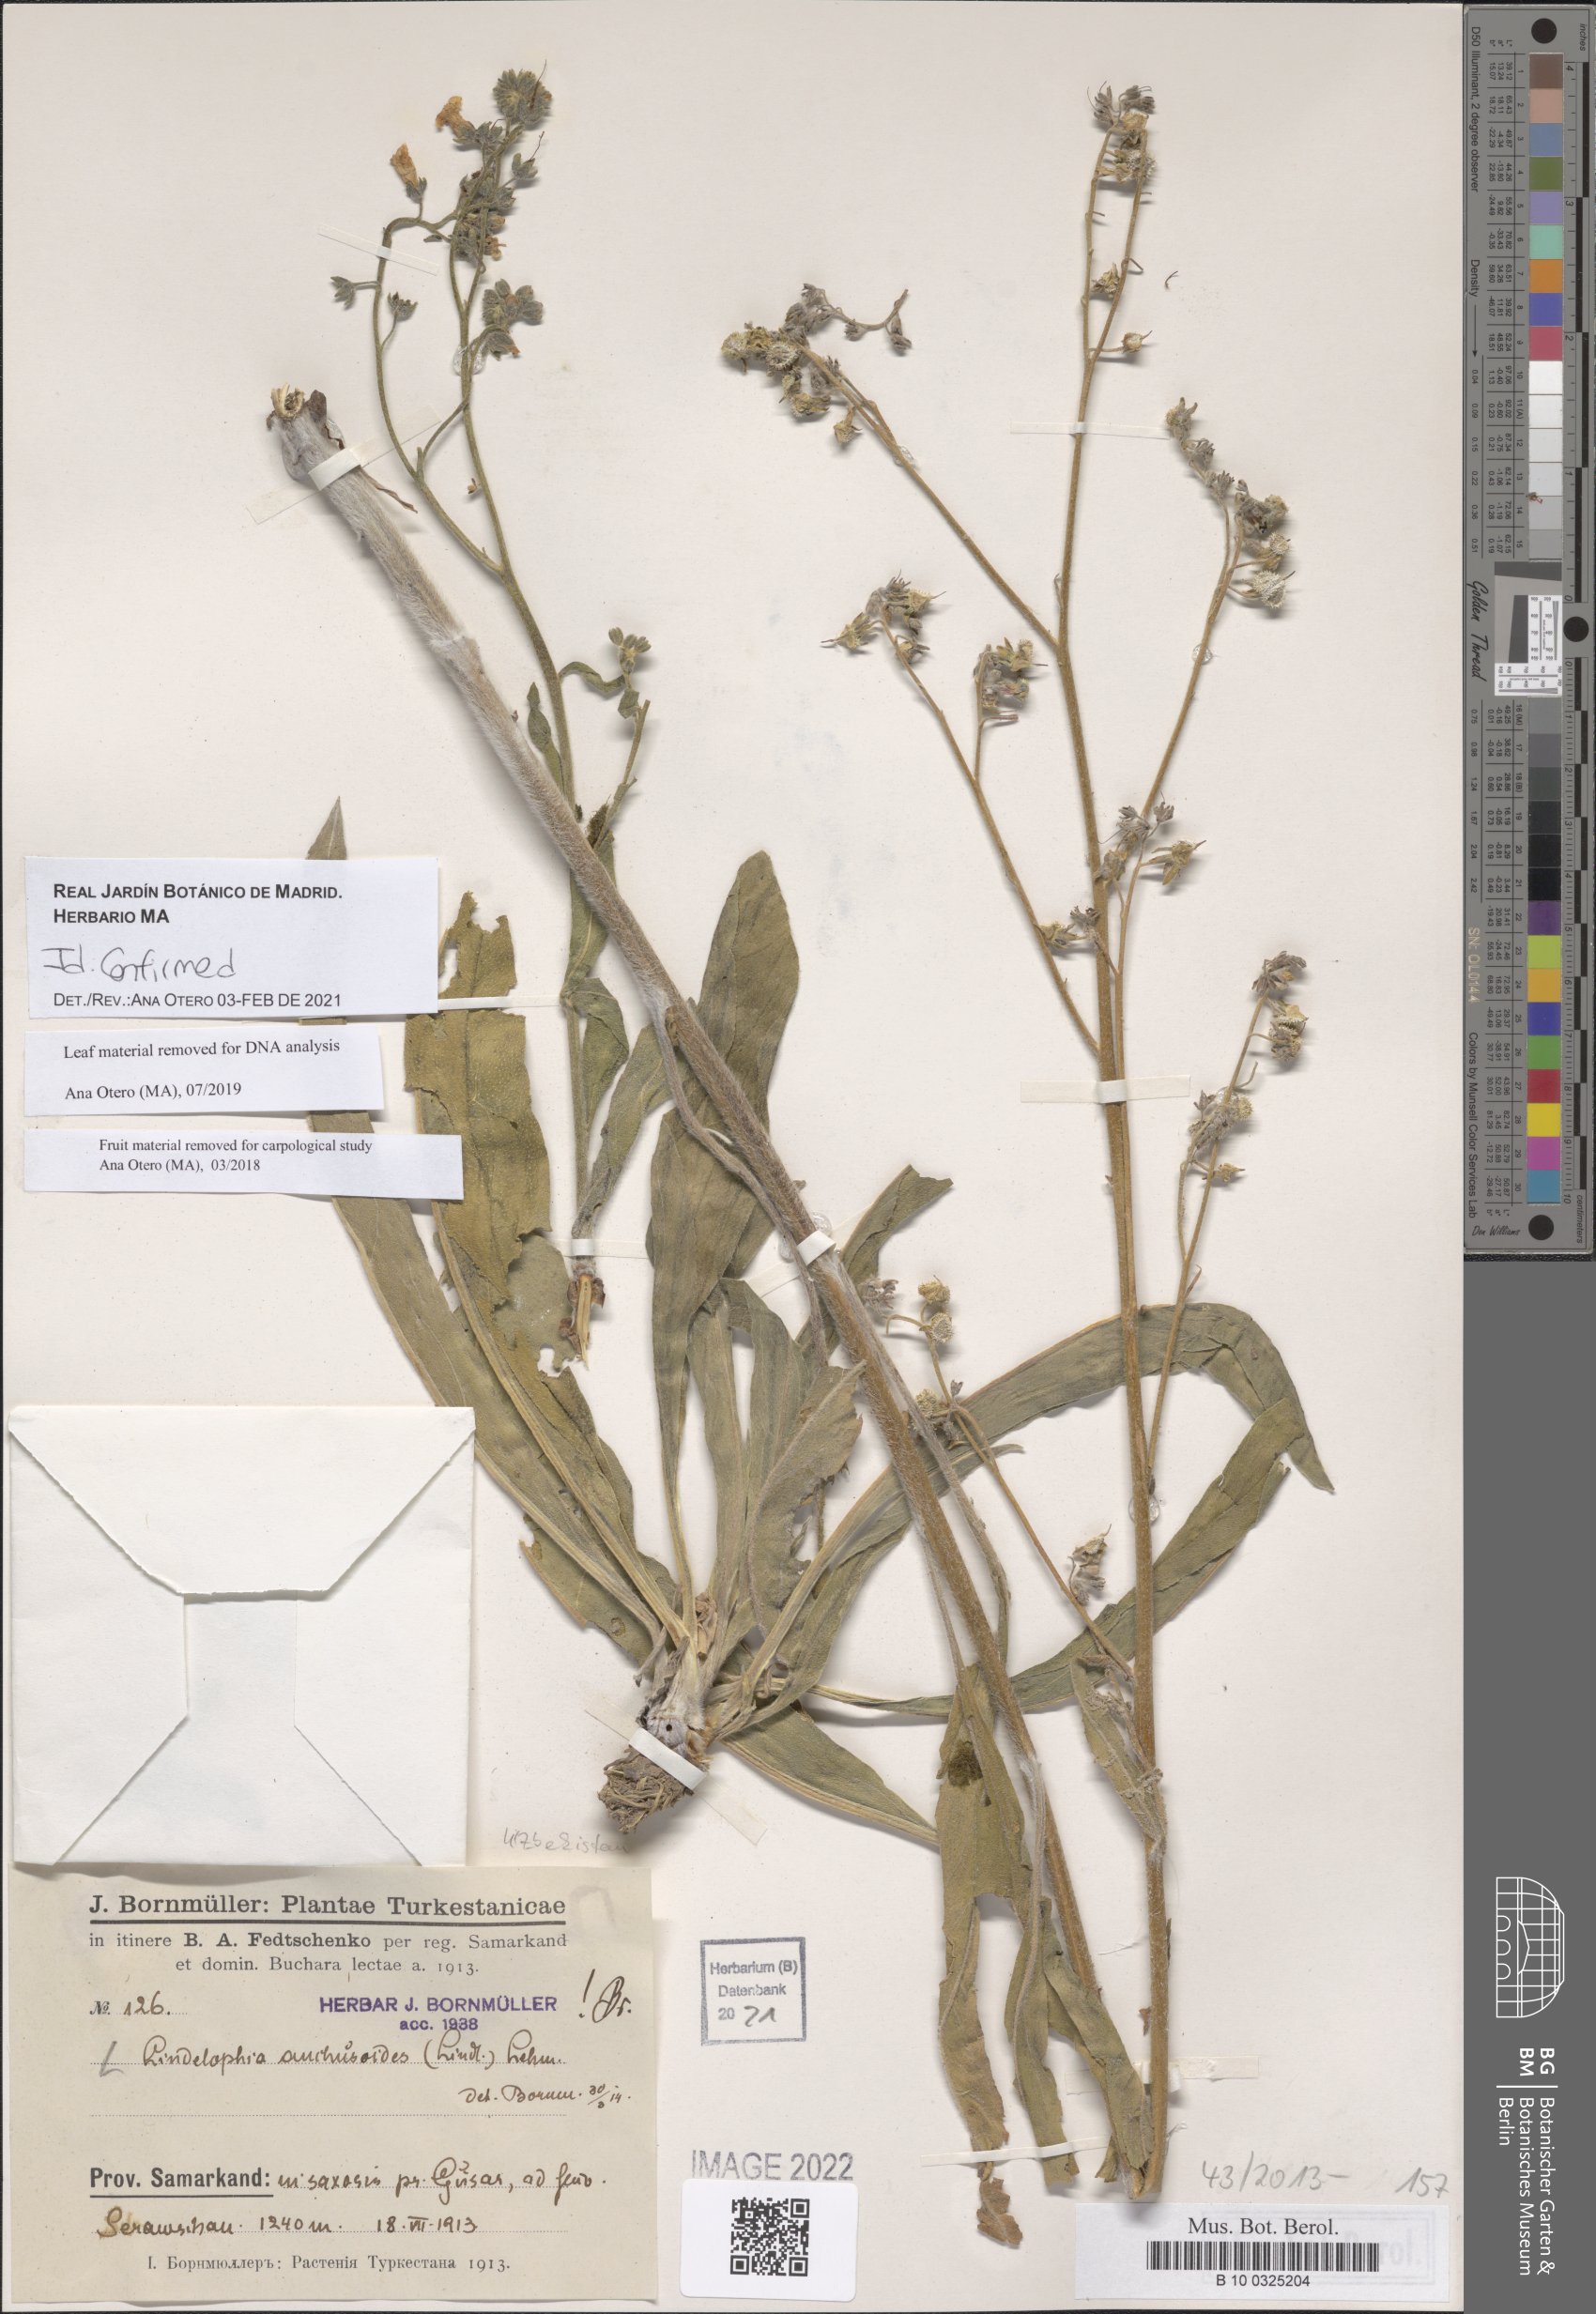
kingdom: Plantae
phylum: Tracheophyta
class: Magnoliopsida
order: Boraginales
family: Boraginaceae
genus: Lindelofia
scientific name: Lindelofia anchusoides
